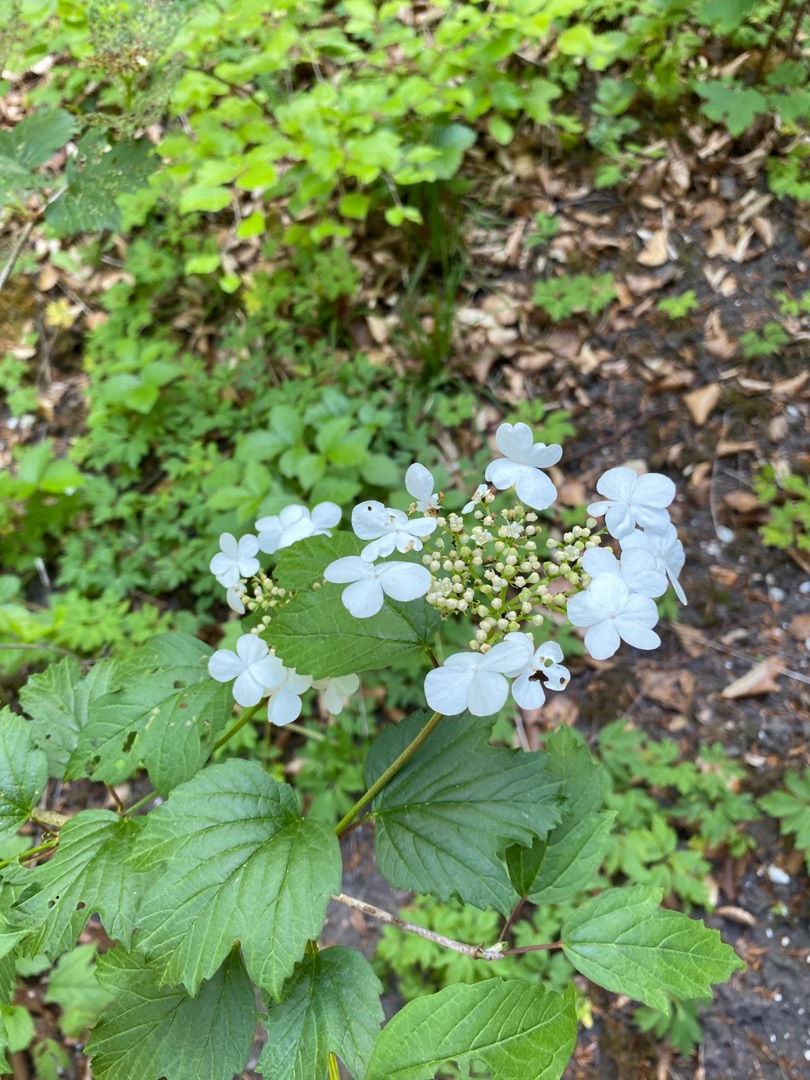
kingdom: Plantae
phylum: Tracheophyta
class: Magnoliopsida
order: Dipsacales
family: Viburnaceae
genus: Viburnum
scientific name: Viburnum opulus
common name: Kvalkved
